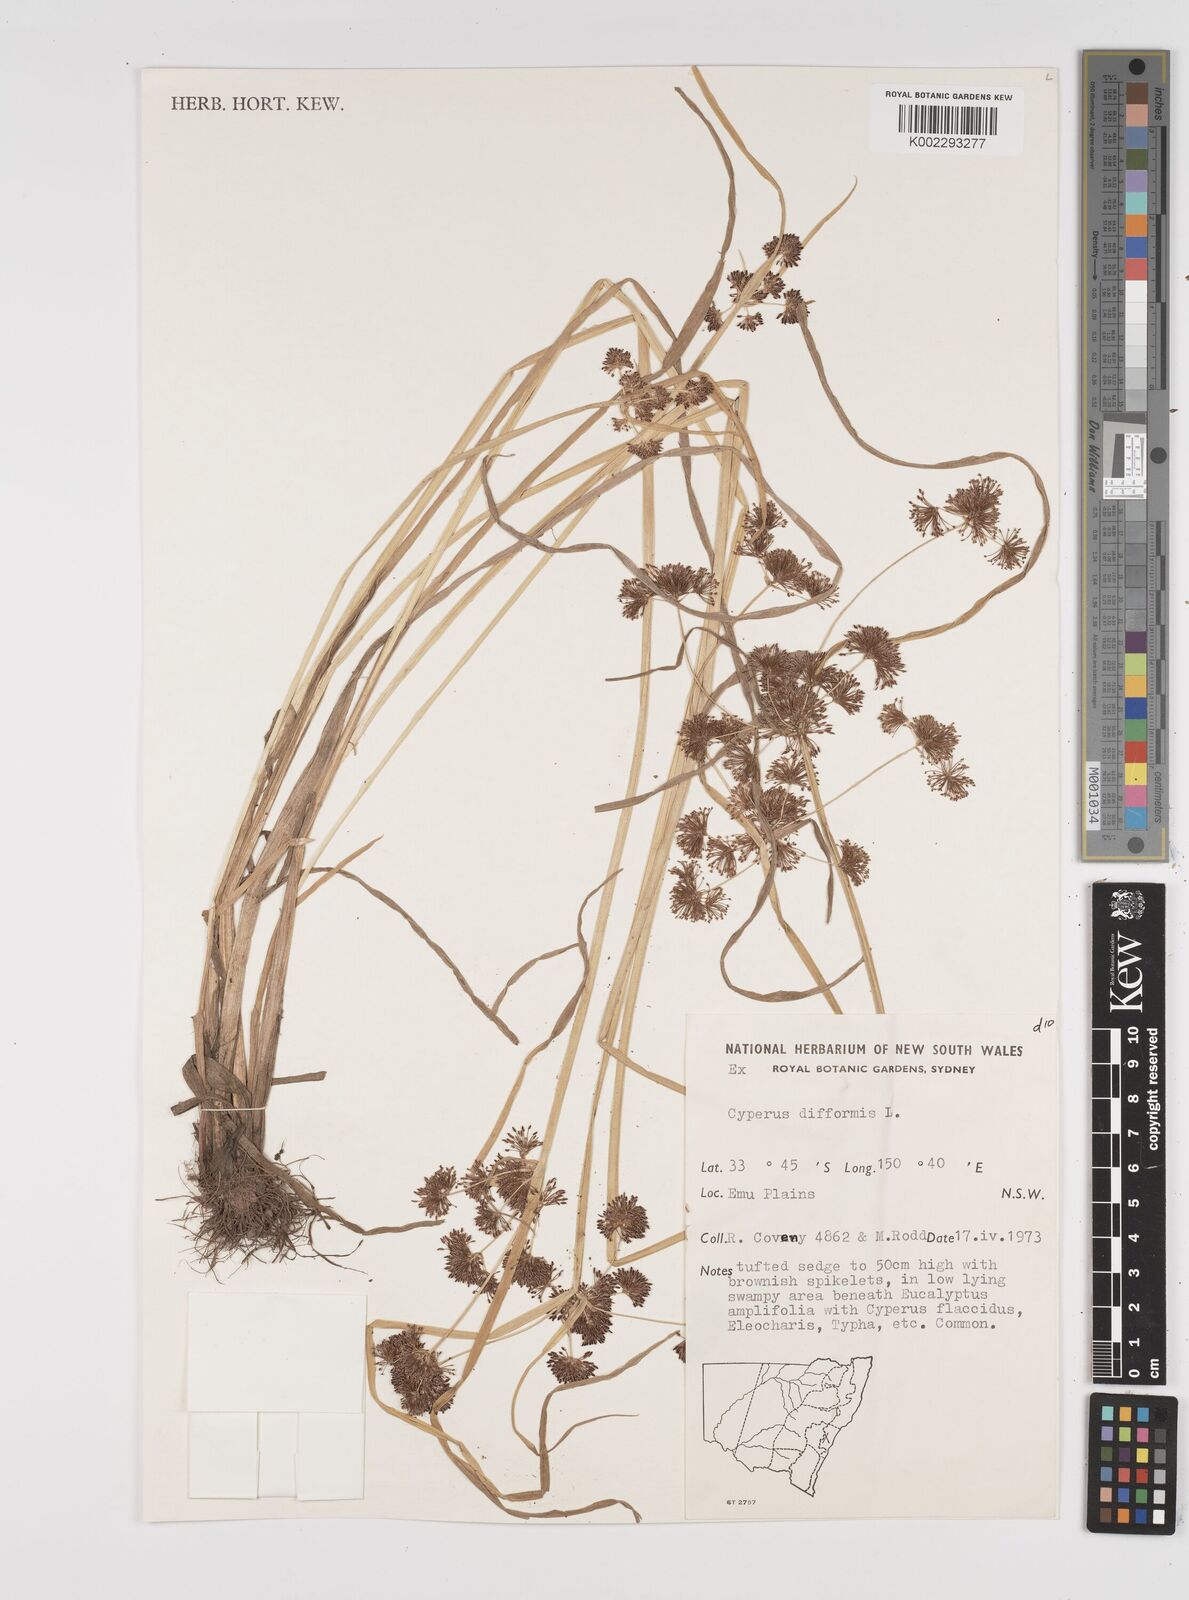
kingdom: Plantae
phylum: Tracheophyta
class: Liliopsida
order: Poales
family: Cyperaceae
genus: Cyperus
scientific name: Cyperus difformis
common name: Variable flatsedge
